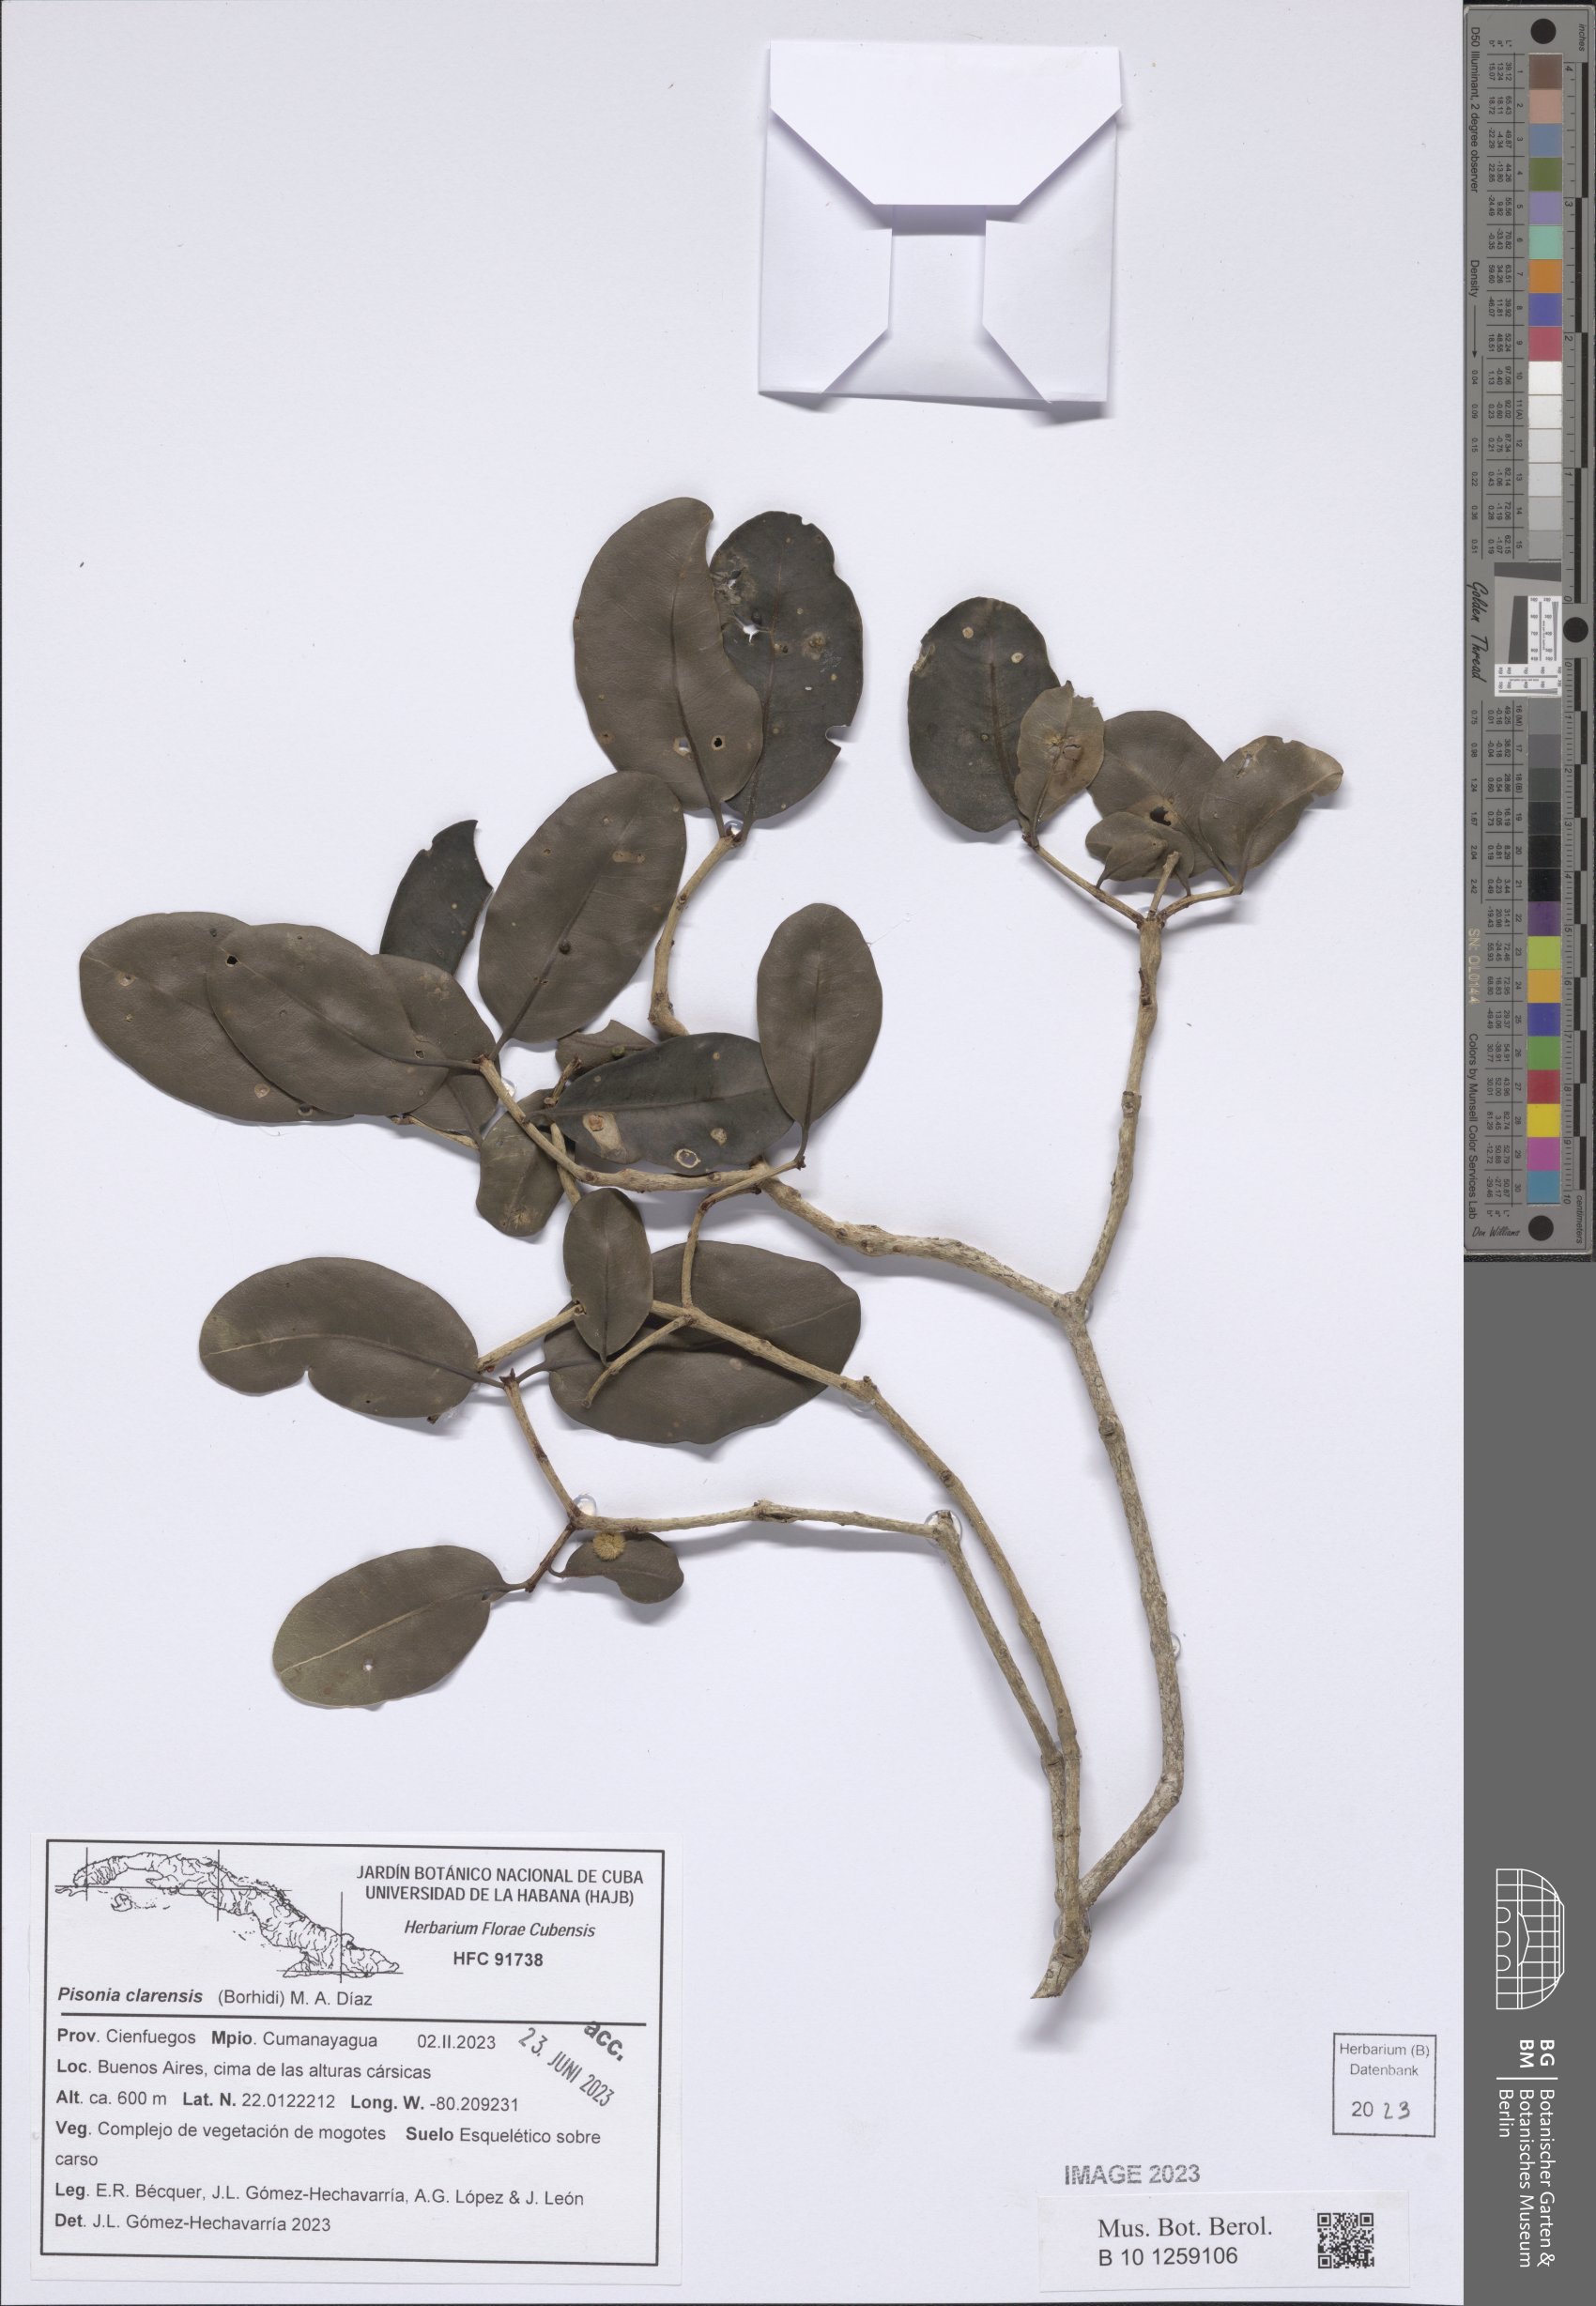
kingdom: Plantae
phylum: Tracheophyta
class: Magnoliopsida
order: Caryophyllales
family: Nyctaginaceae
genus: Guapira
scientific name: Guapira clarensis
